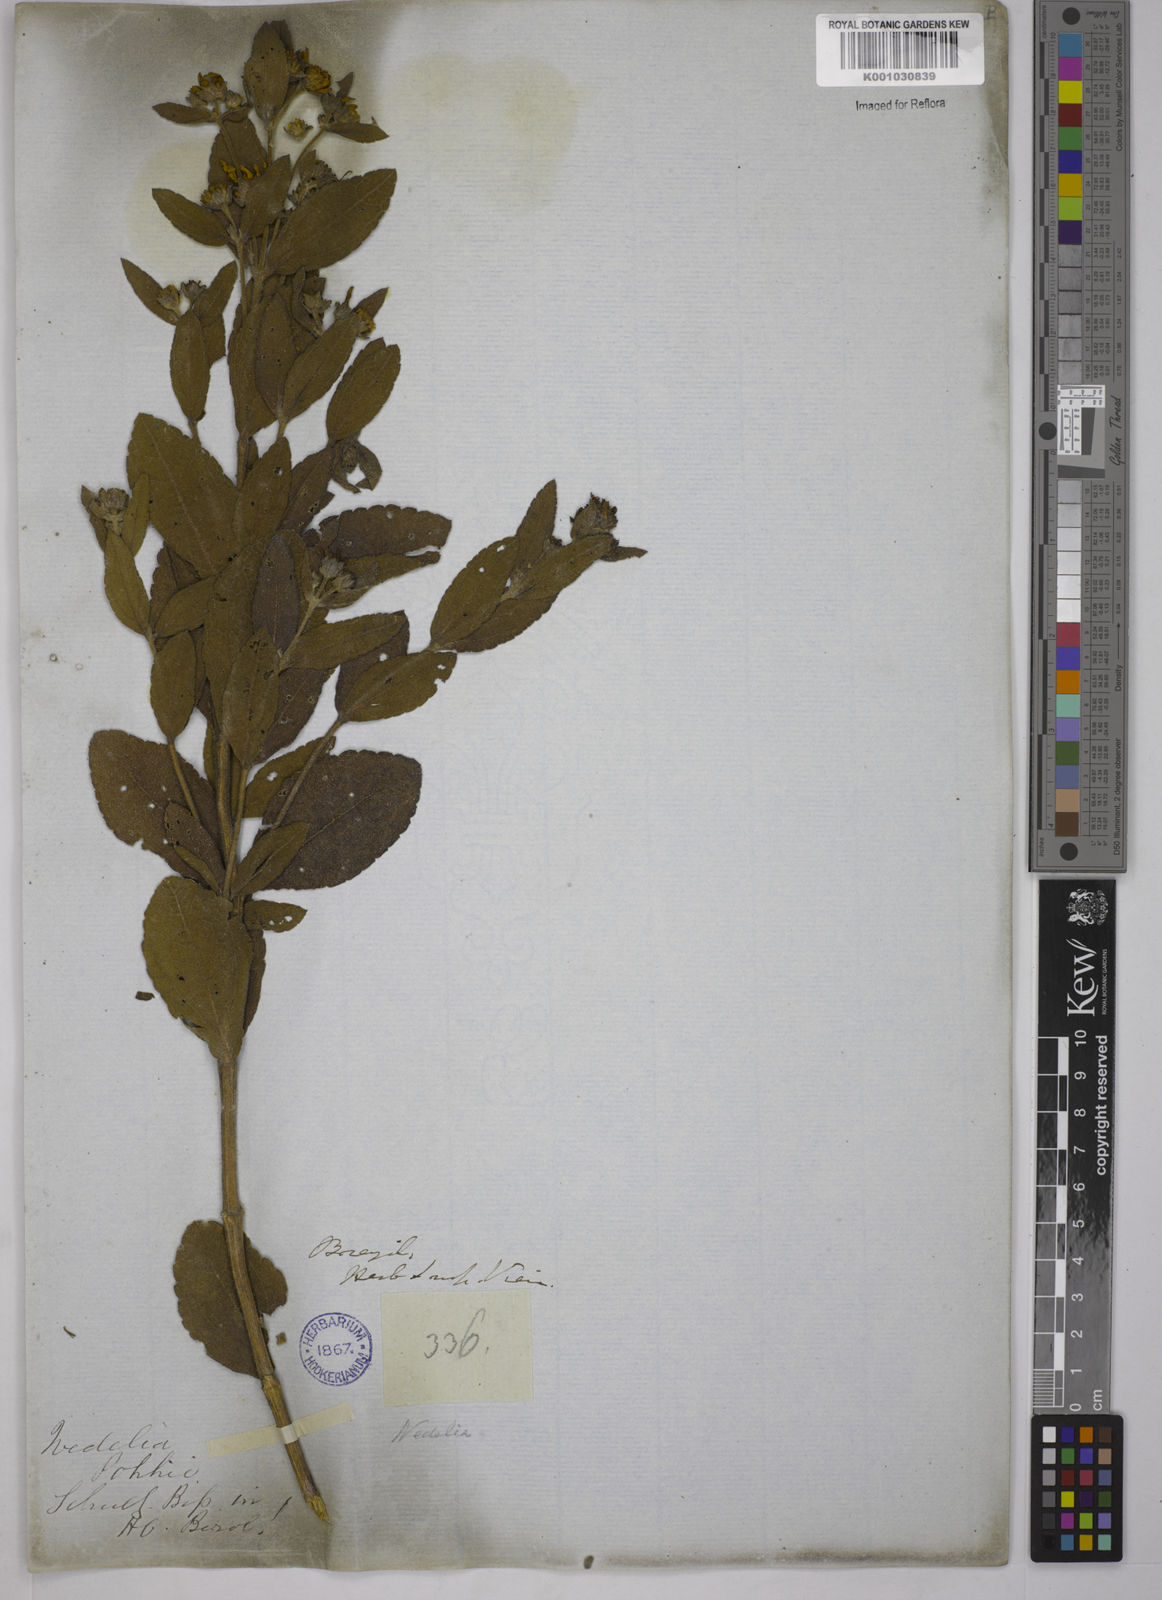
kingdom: Plantae
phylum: Tracheophyta
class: Magnoliopsida
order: Asterales
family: Asteraceae
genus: Wedelia
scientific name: Wedelia vauthieri
